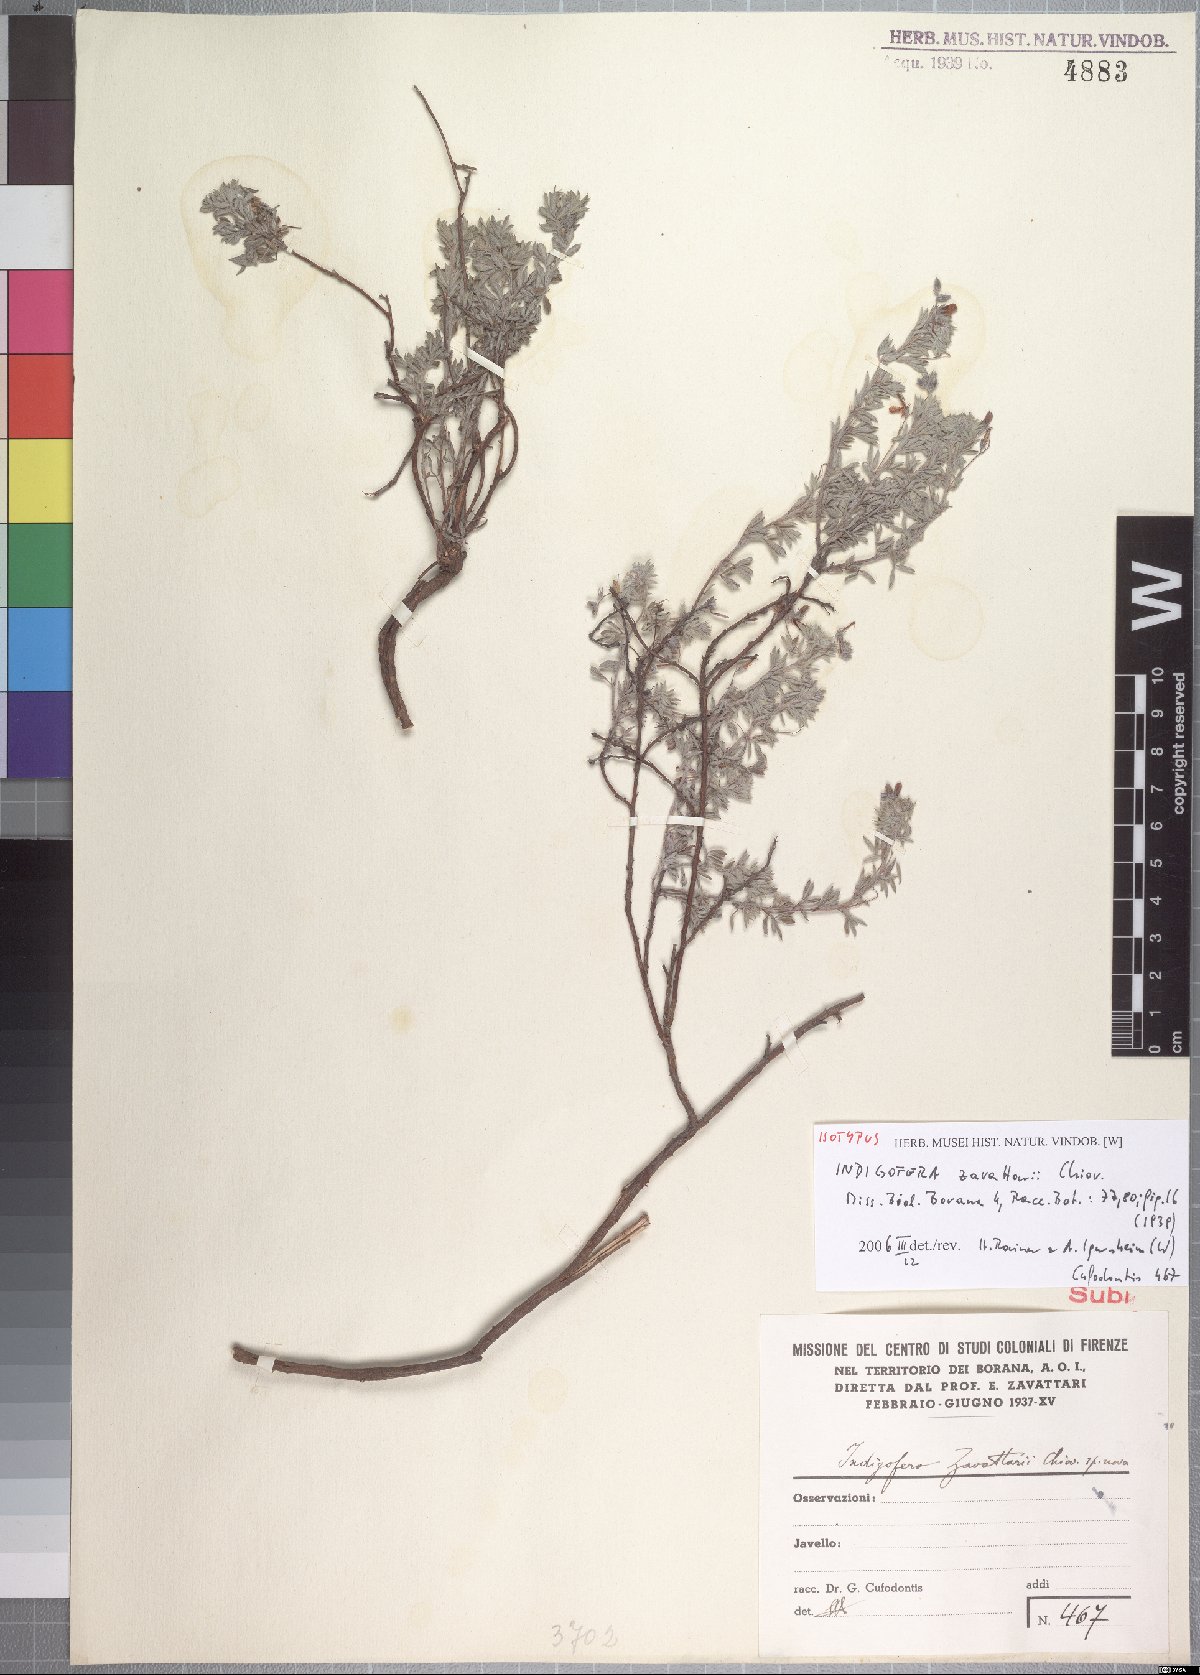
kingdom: Plantae
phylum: Tracheophyta
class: Magnoliopsida
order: Fabales
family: Fabaceae
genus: Indigofera
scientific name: Indigofera zavattarii
